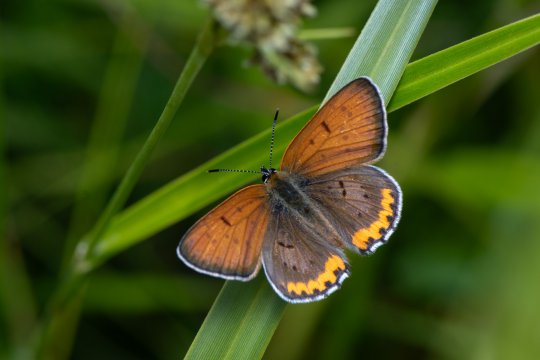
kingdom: Animalia
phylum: Arthropoda
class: Insecta
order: Lepidoptera
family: Sesiidae
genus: Sesia
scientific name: Sesia Lycaena hyllus
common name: Bronze Copper
